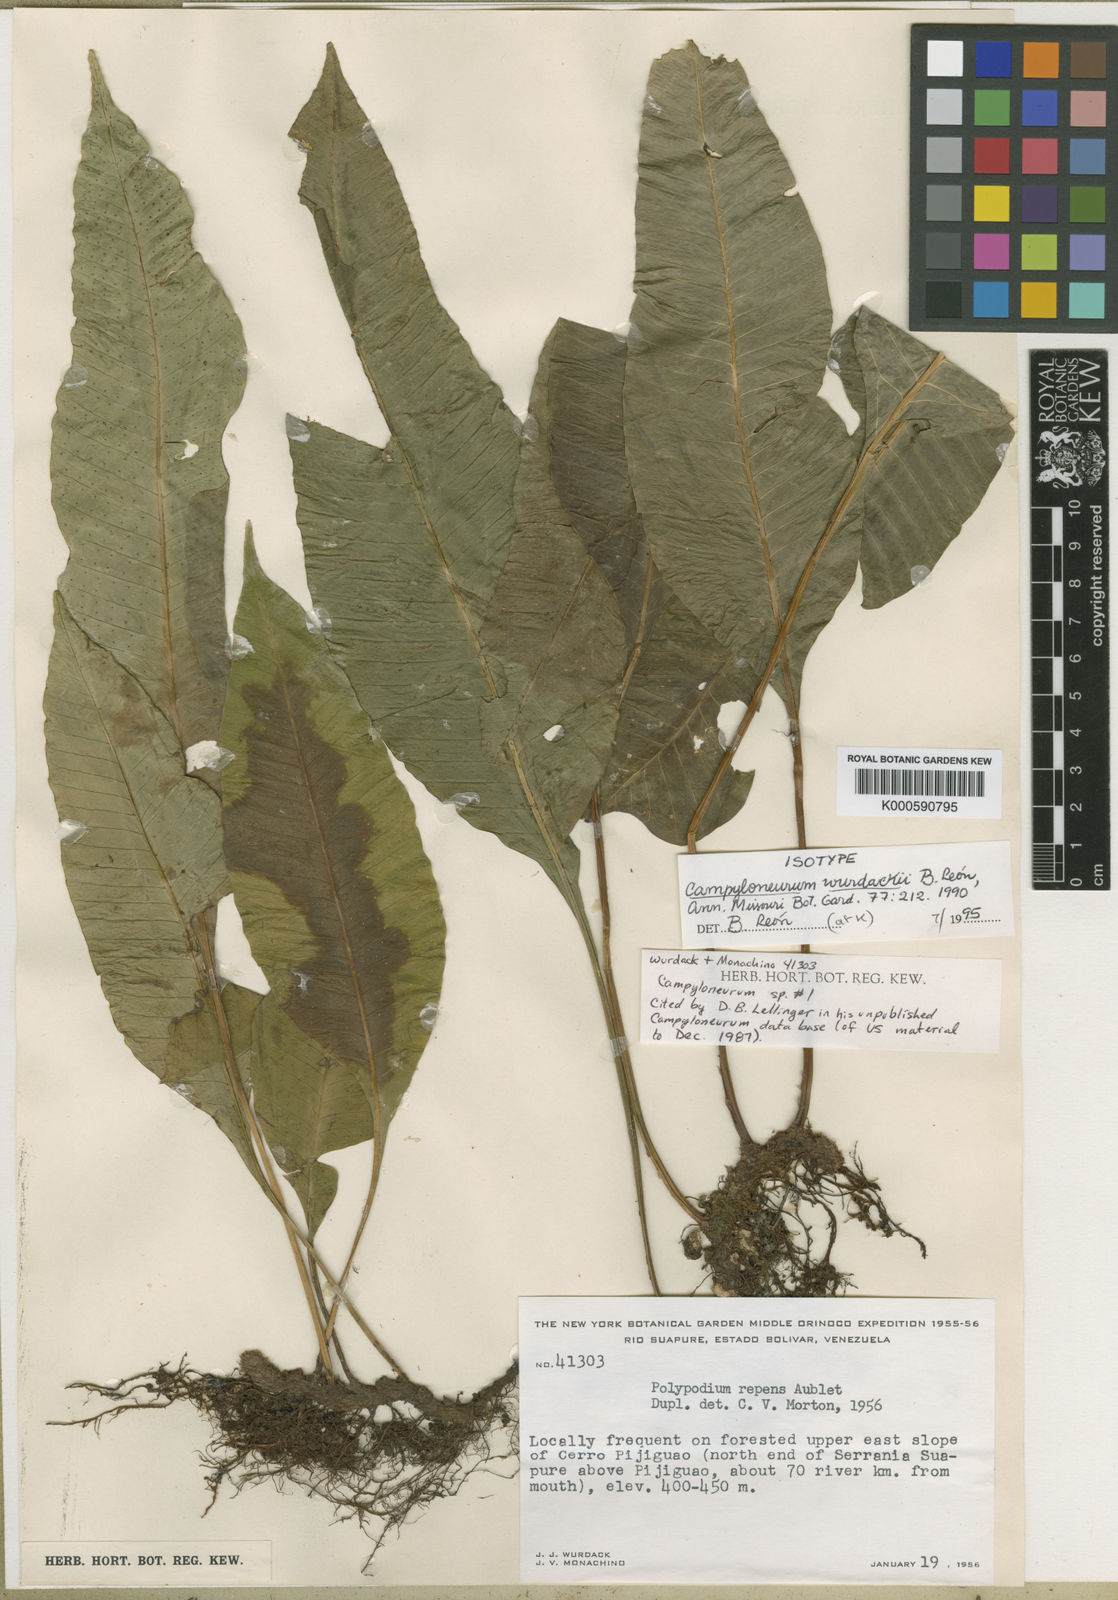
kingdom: Plantae
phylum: Tracheophyta
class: Polypodiopsida
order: Polypodiales
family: Polypodiaceae
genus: Campyloneurum
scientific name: Campyloneurum
